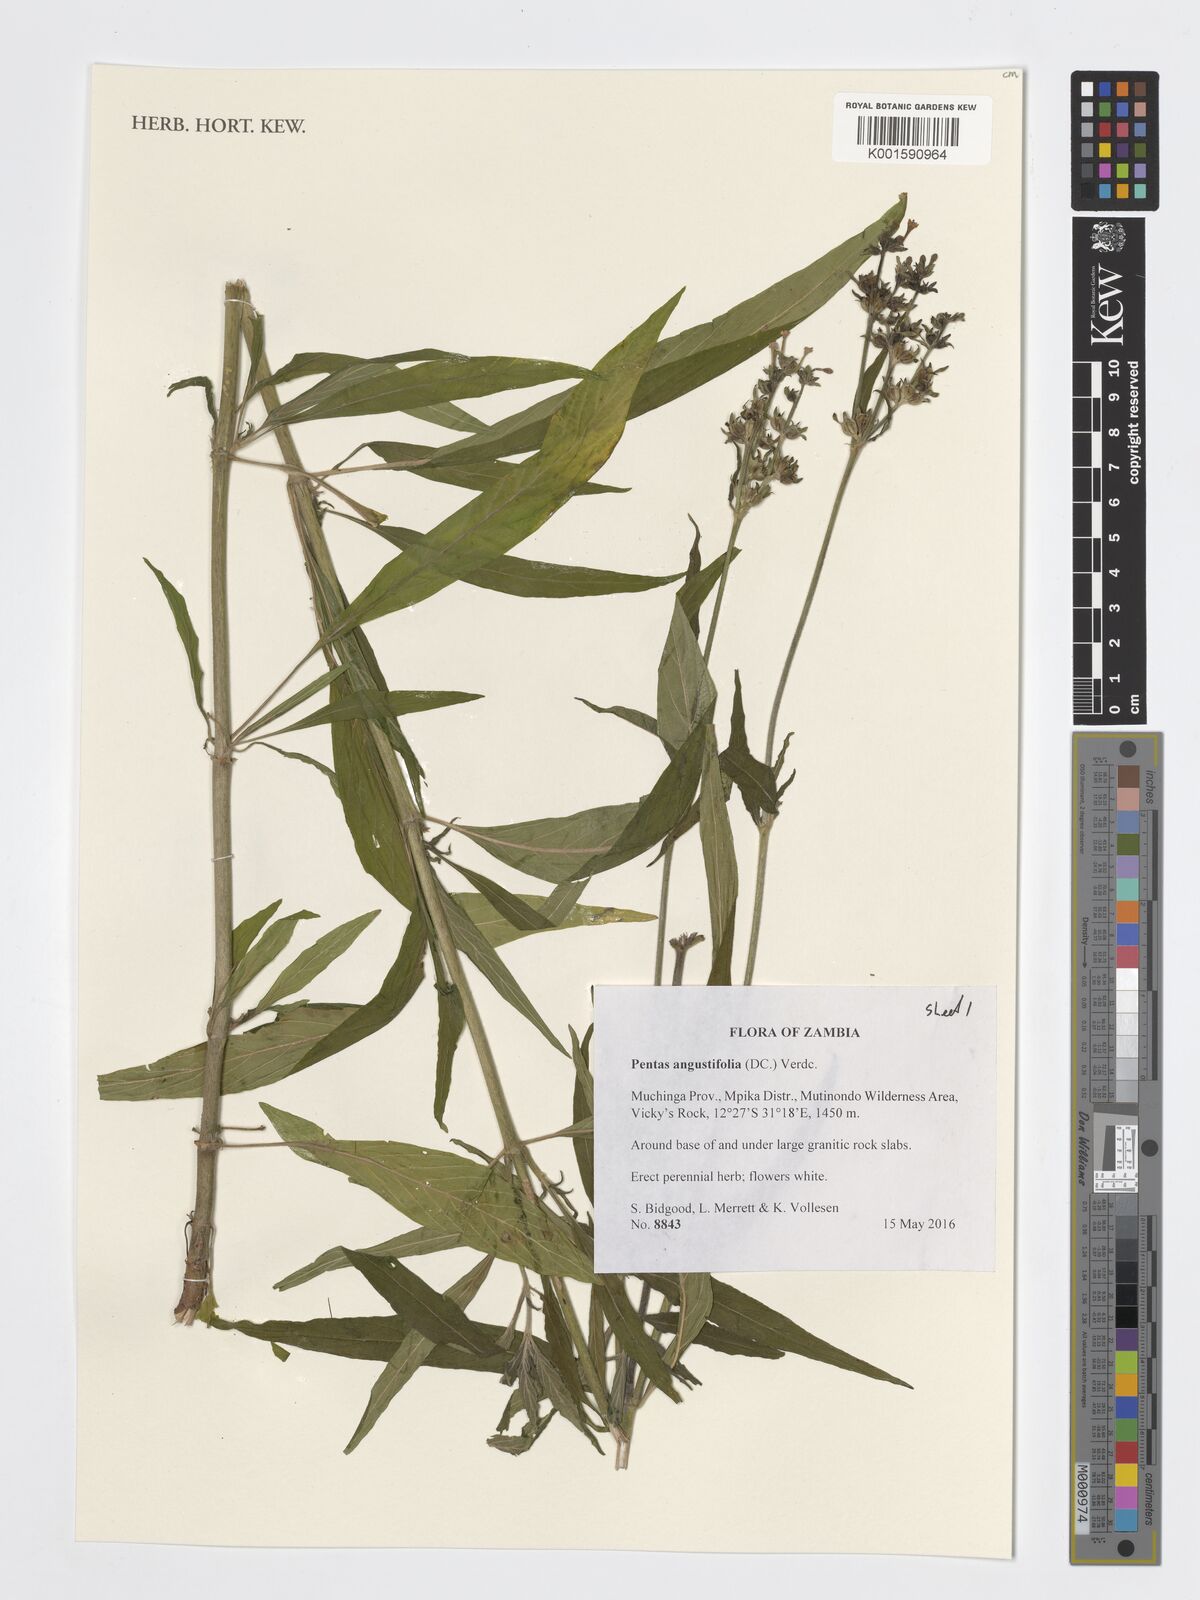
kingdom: Plantae
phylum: Tracheophyta
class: Magnoliopsida
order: Gentianales
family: Rubiaceae
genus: Pentas
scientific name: Pentas angustifolia
